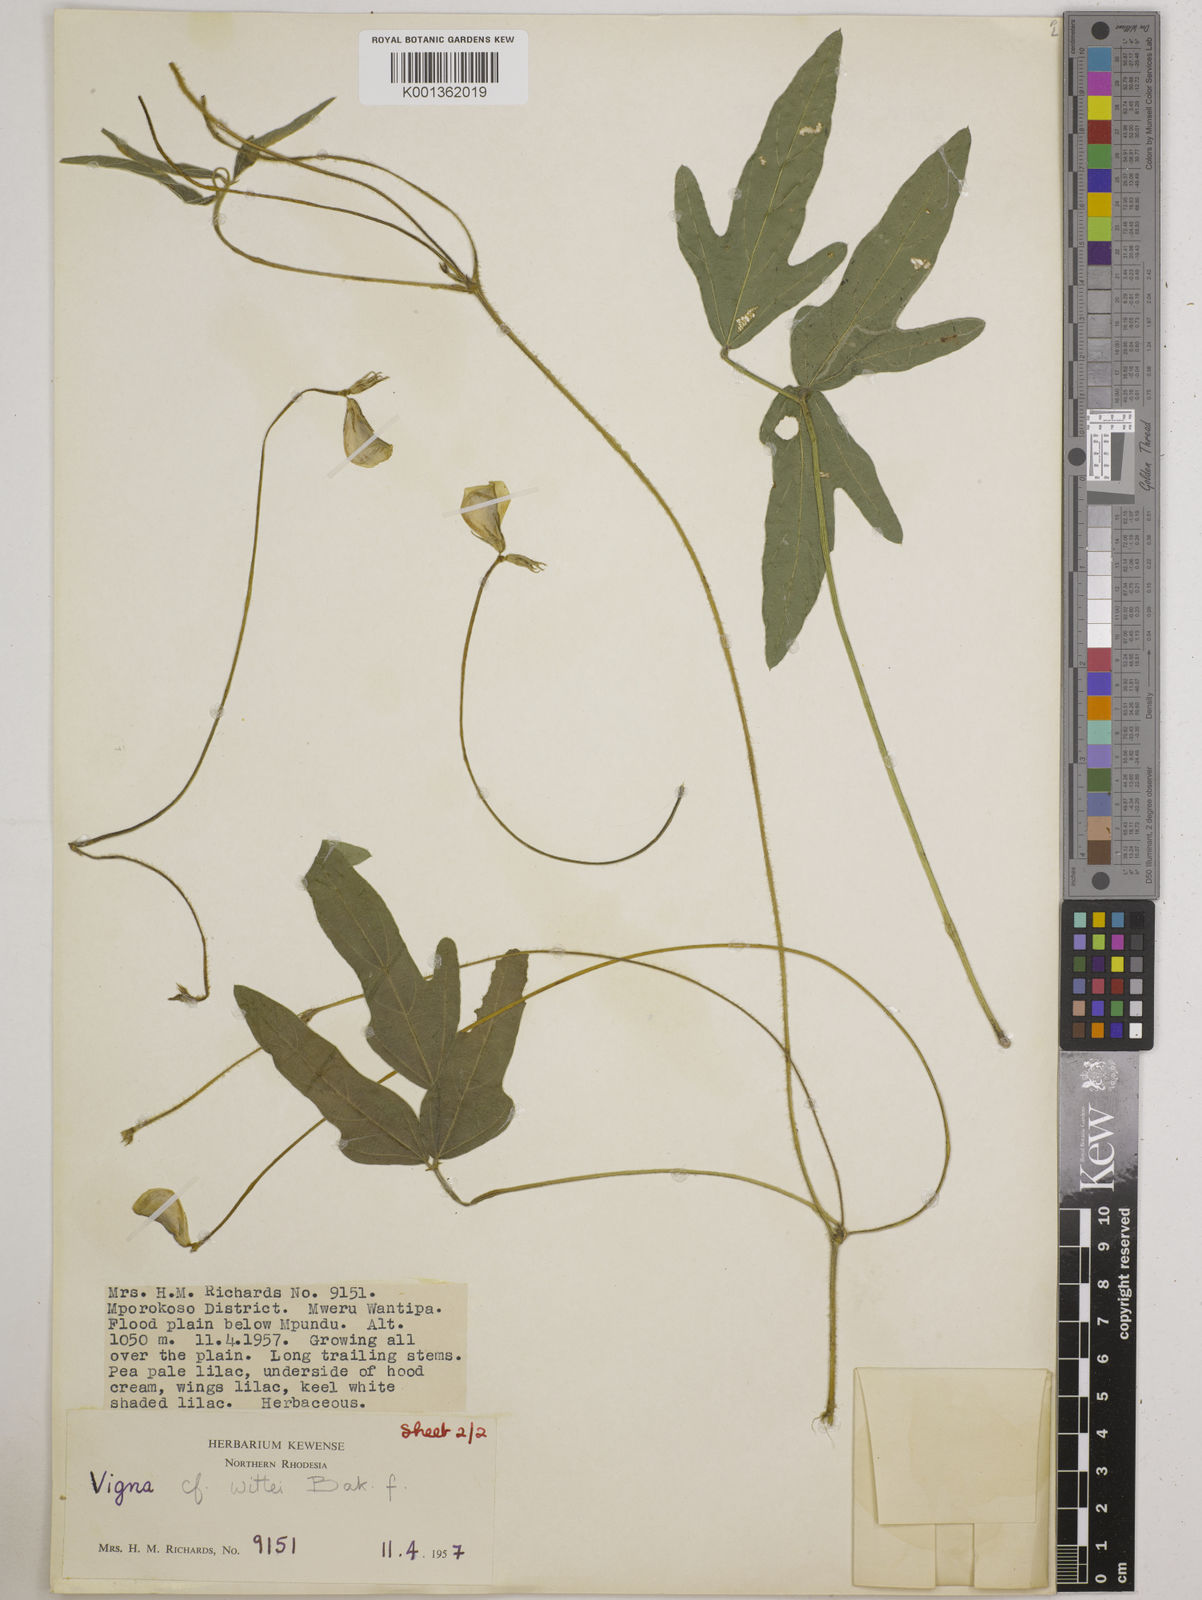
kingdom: Plantae
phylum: Tracheophyta
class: Magnoliopsida
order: Fabales
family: Fabaceae
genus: Vigna
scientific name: Vigna radicans
